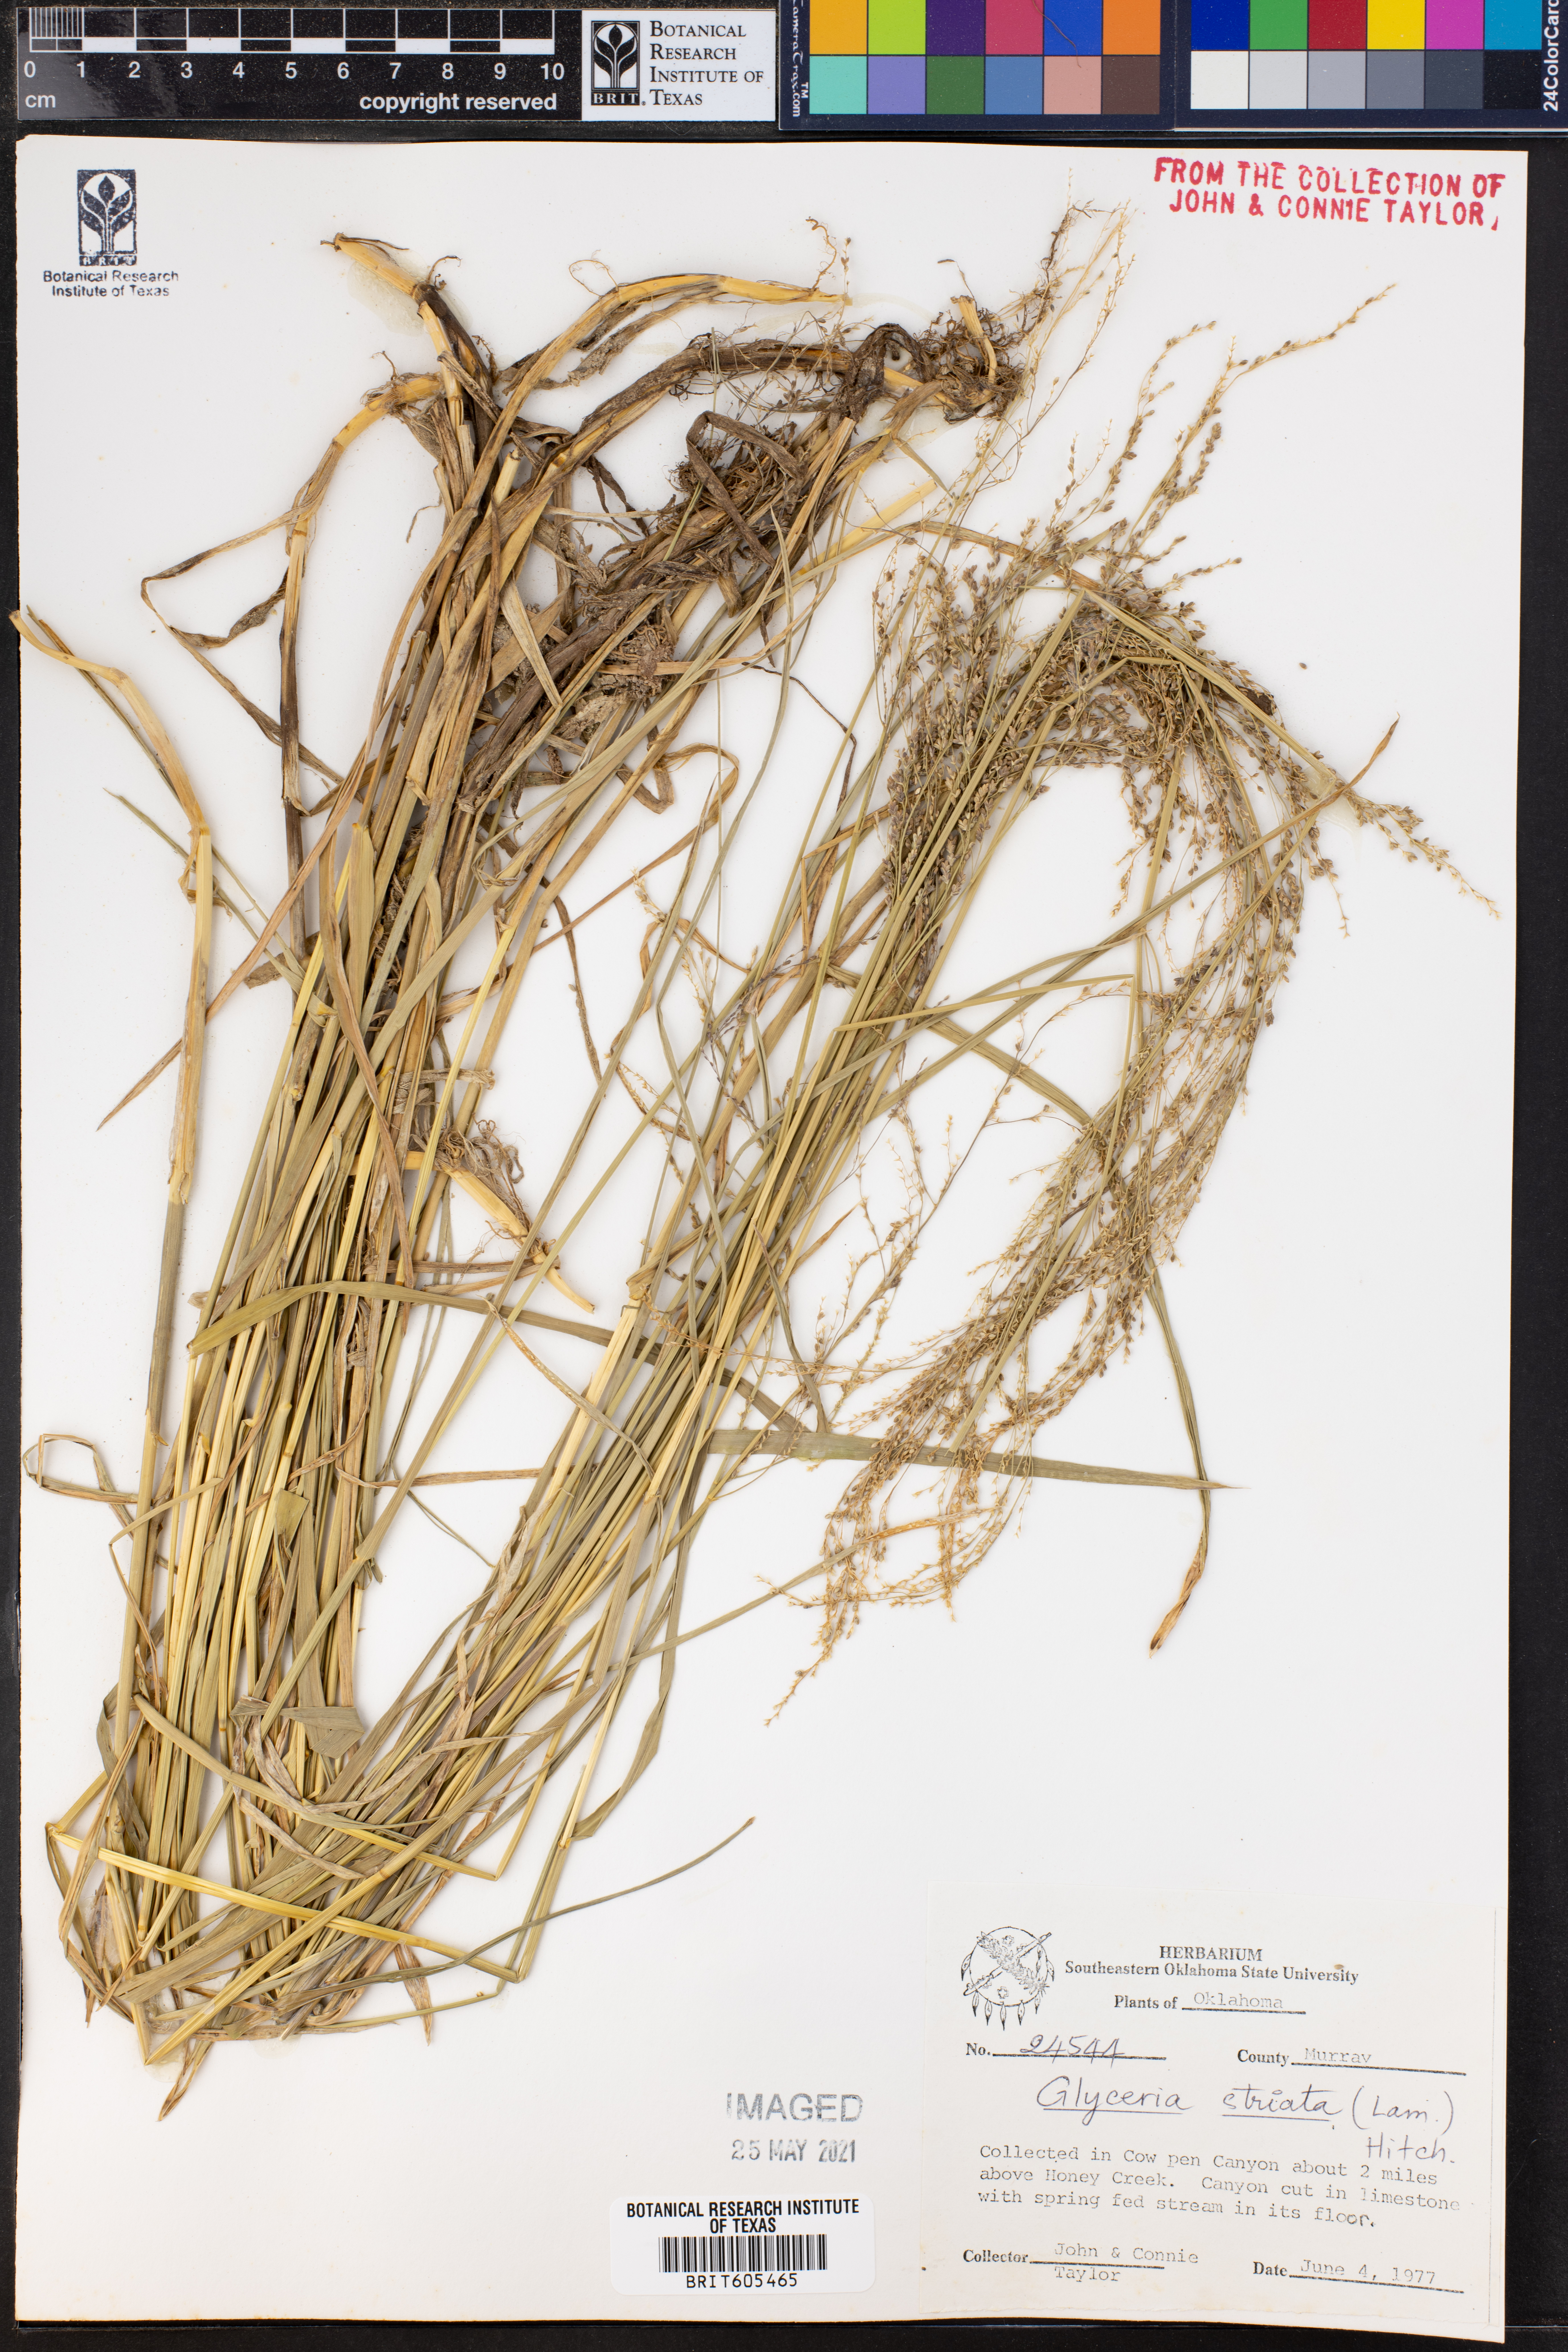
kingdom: Plantae
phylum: Tracheophyta
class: Liliopsida
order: Poales
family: Poaceae
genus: Glyceria
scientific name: Glyceria striata
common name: Fowl manna grass
